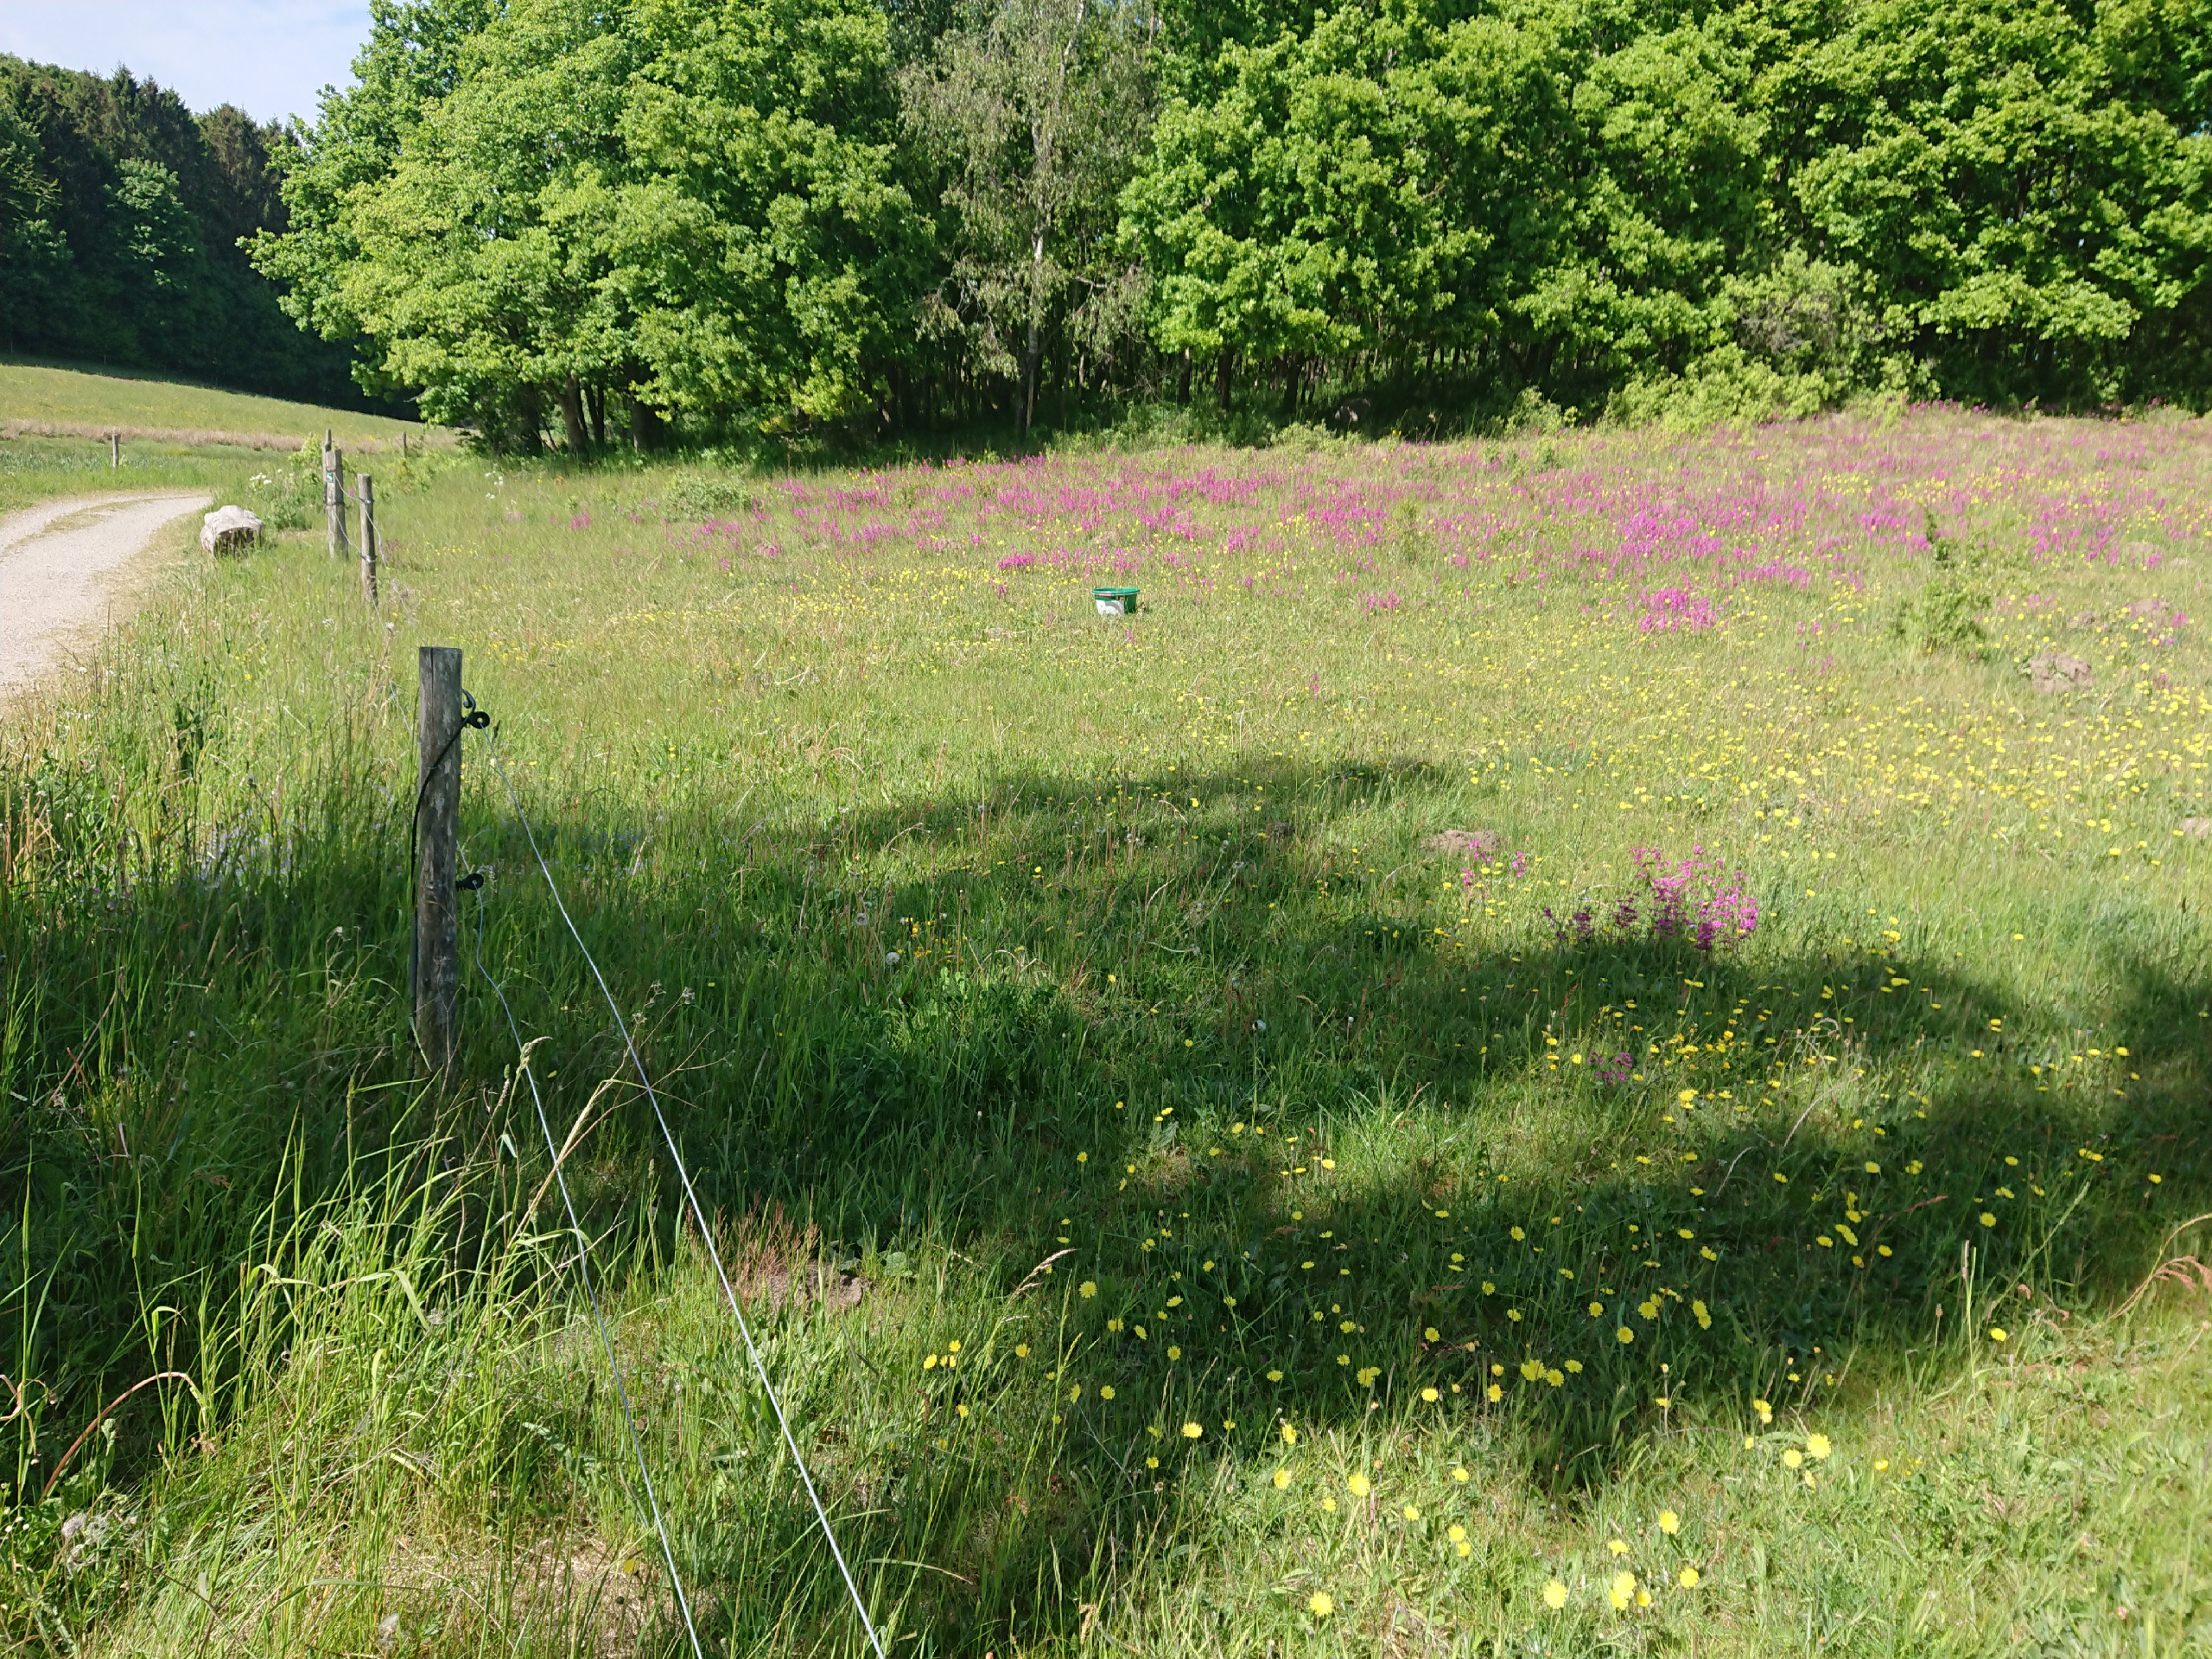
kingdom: Plantae
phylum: Tracheophyta
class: Magnoliopsida
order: Caryophyllales
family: Caryophyllaceae
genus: Viscaria
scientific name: Viscaria vulgaris
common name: Tjærenellike
